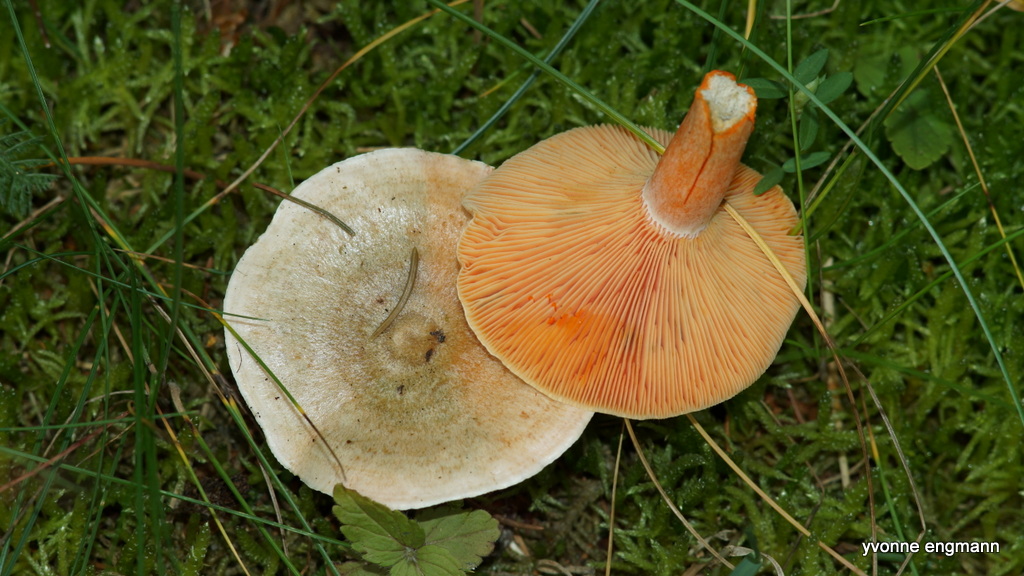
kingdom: Fungi
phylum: Basidiomycota
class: Agaricomycetes
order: Russulales
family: Russulaceae
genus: Lactarius
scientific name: Lactarius deterrimus
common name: gran-mælkehat
